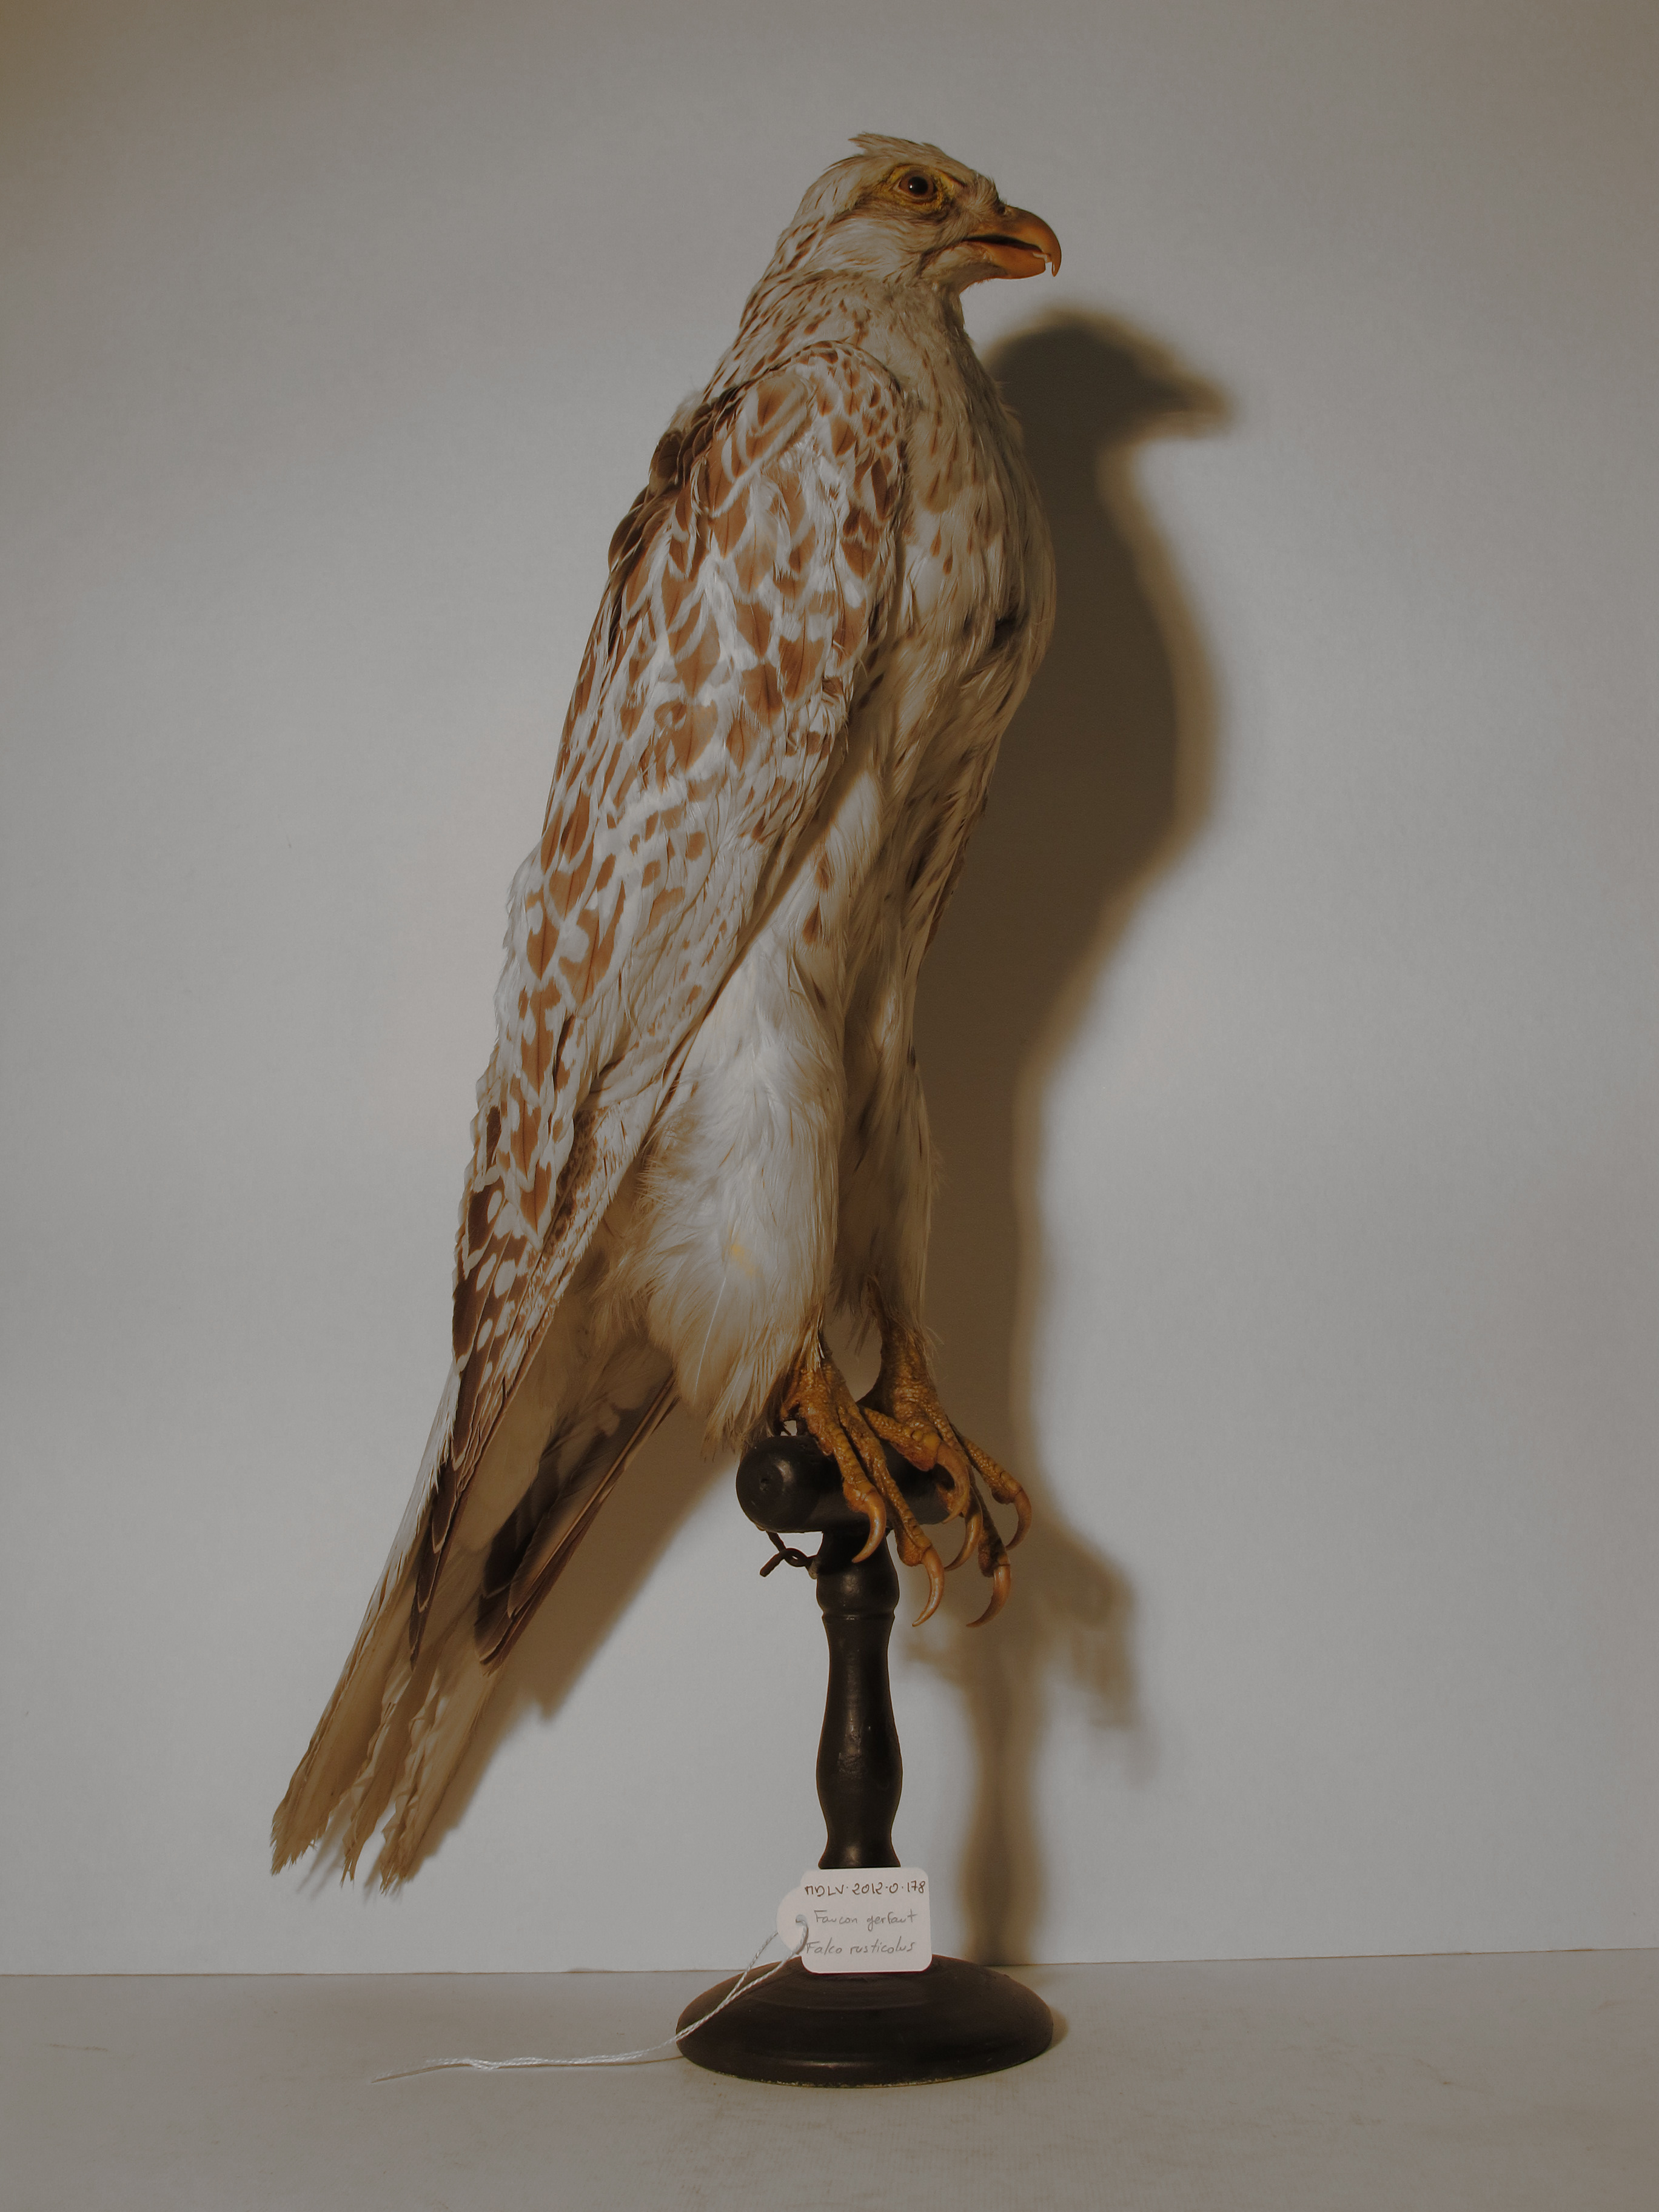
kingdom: Animalia
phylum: Chordata
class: Aves
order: Falconiformes
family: Falconidae
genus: Falco
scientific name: Falco rusticolus
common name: Gyrfalcon
